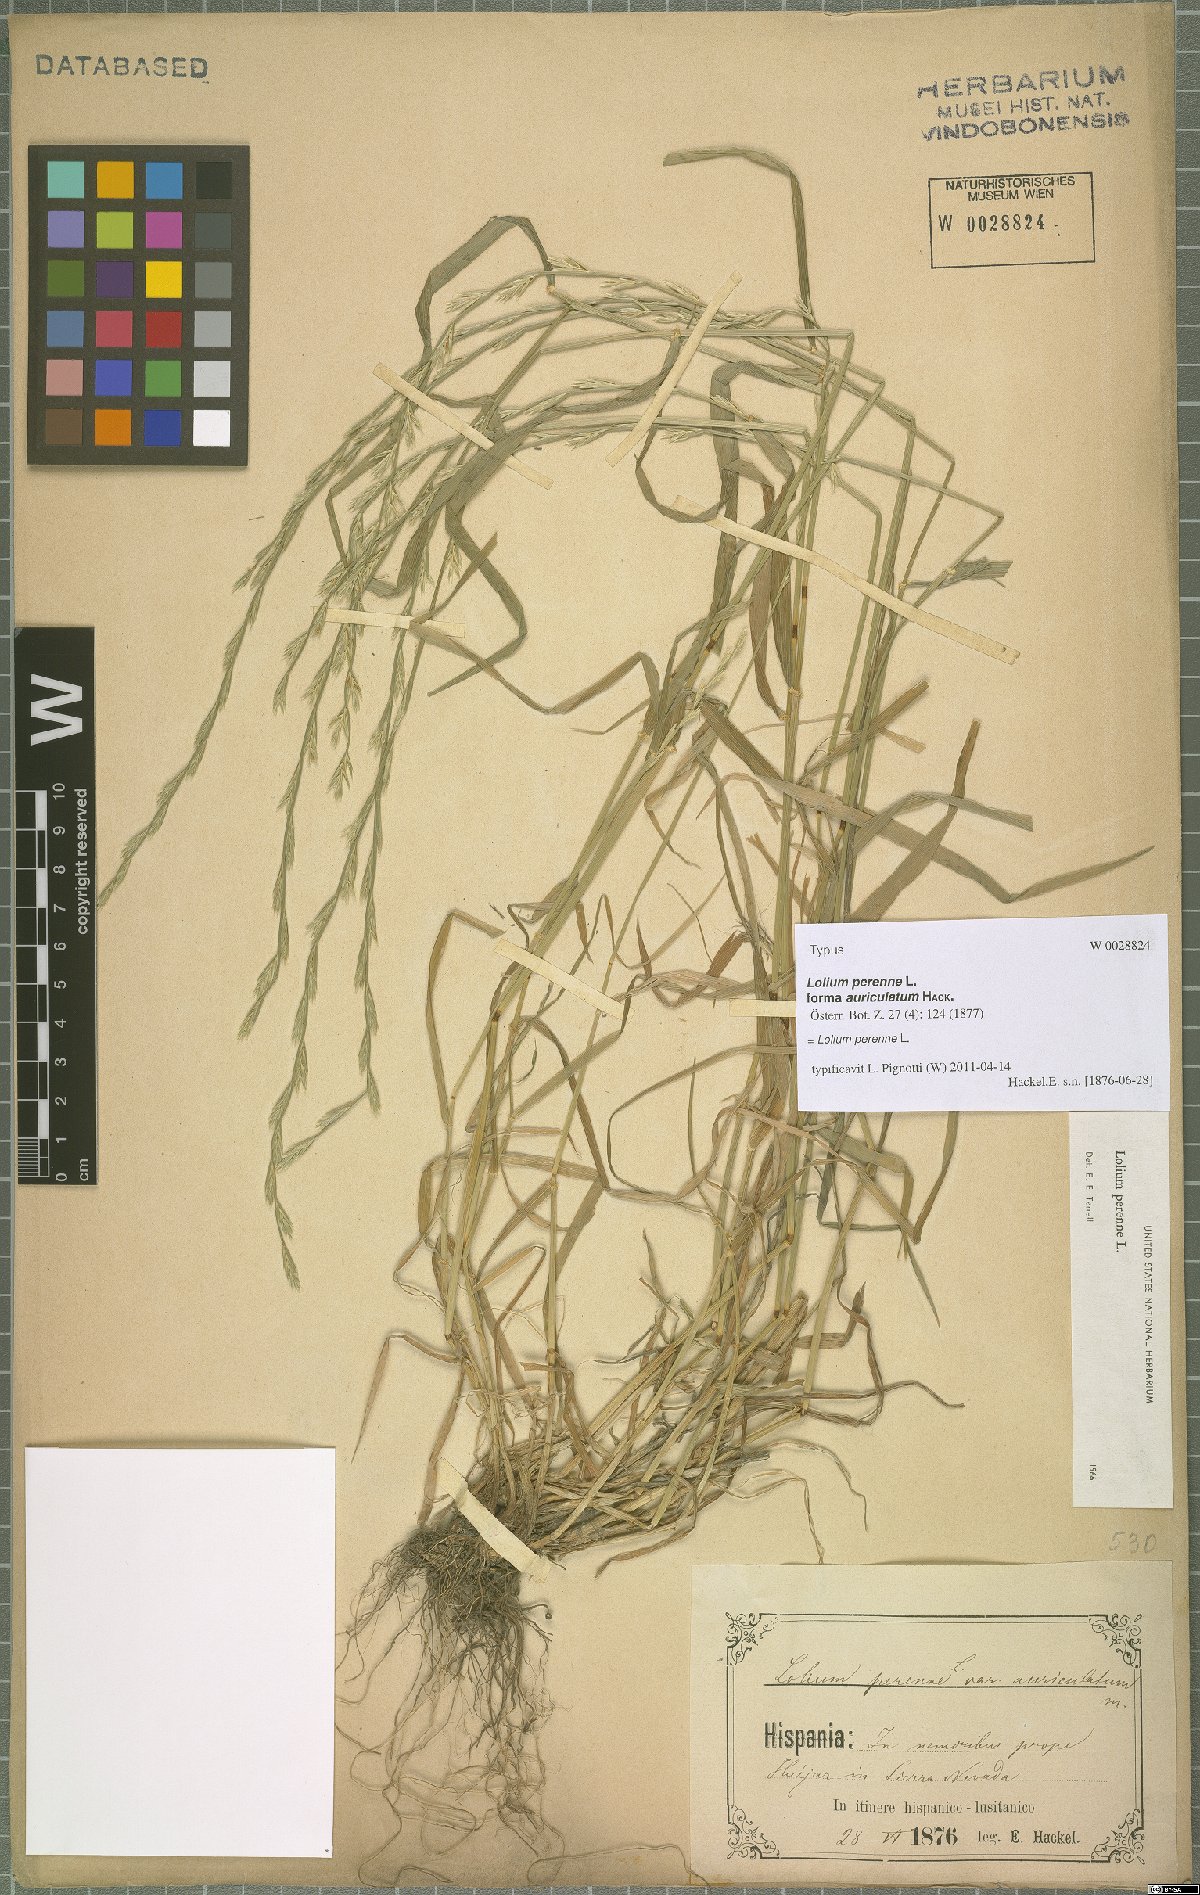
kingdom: Plantae
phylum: Tracheophyta
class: Liliopsida
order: Poales
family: Poaceae
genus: Lolium
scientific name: Lolium perenne
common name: Perennial ryegrass
